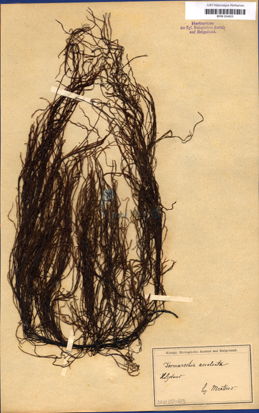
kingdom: Chromista
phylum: Ochrophyta
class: Phaeophyceae
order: Desmarestiales
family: Desmarestiaceae
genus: Desmarestia
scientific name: Desmarestia aculeata
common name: Witch's hair
